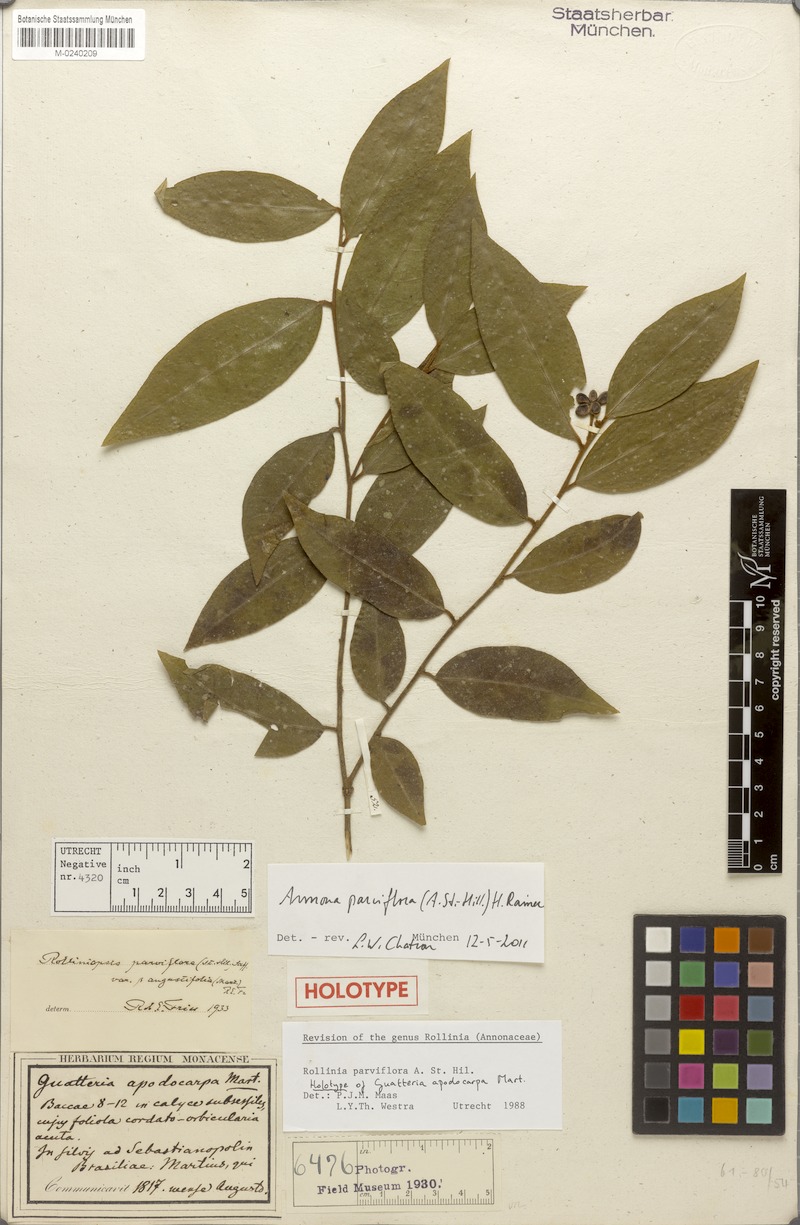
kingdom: Plantae
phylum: Tracheophyta
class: Magnoliopsida
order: Magnoliales
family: Annonaceae
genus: Annona
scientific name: Annona parviflora
